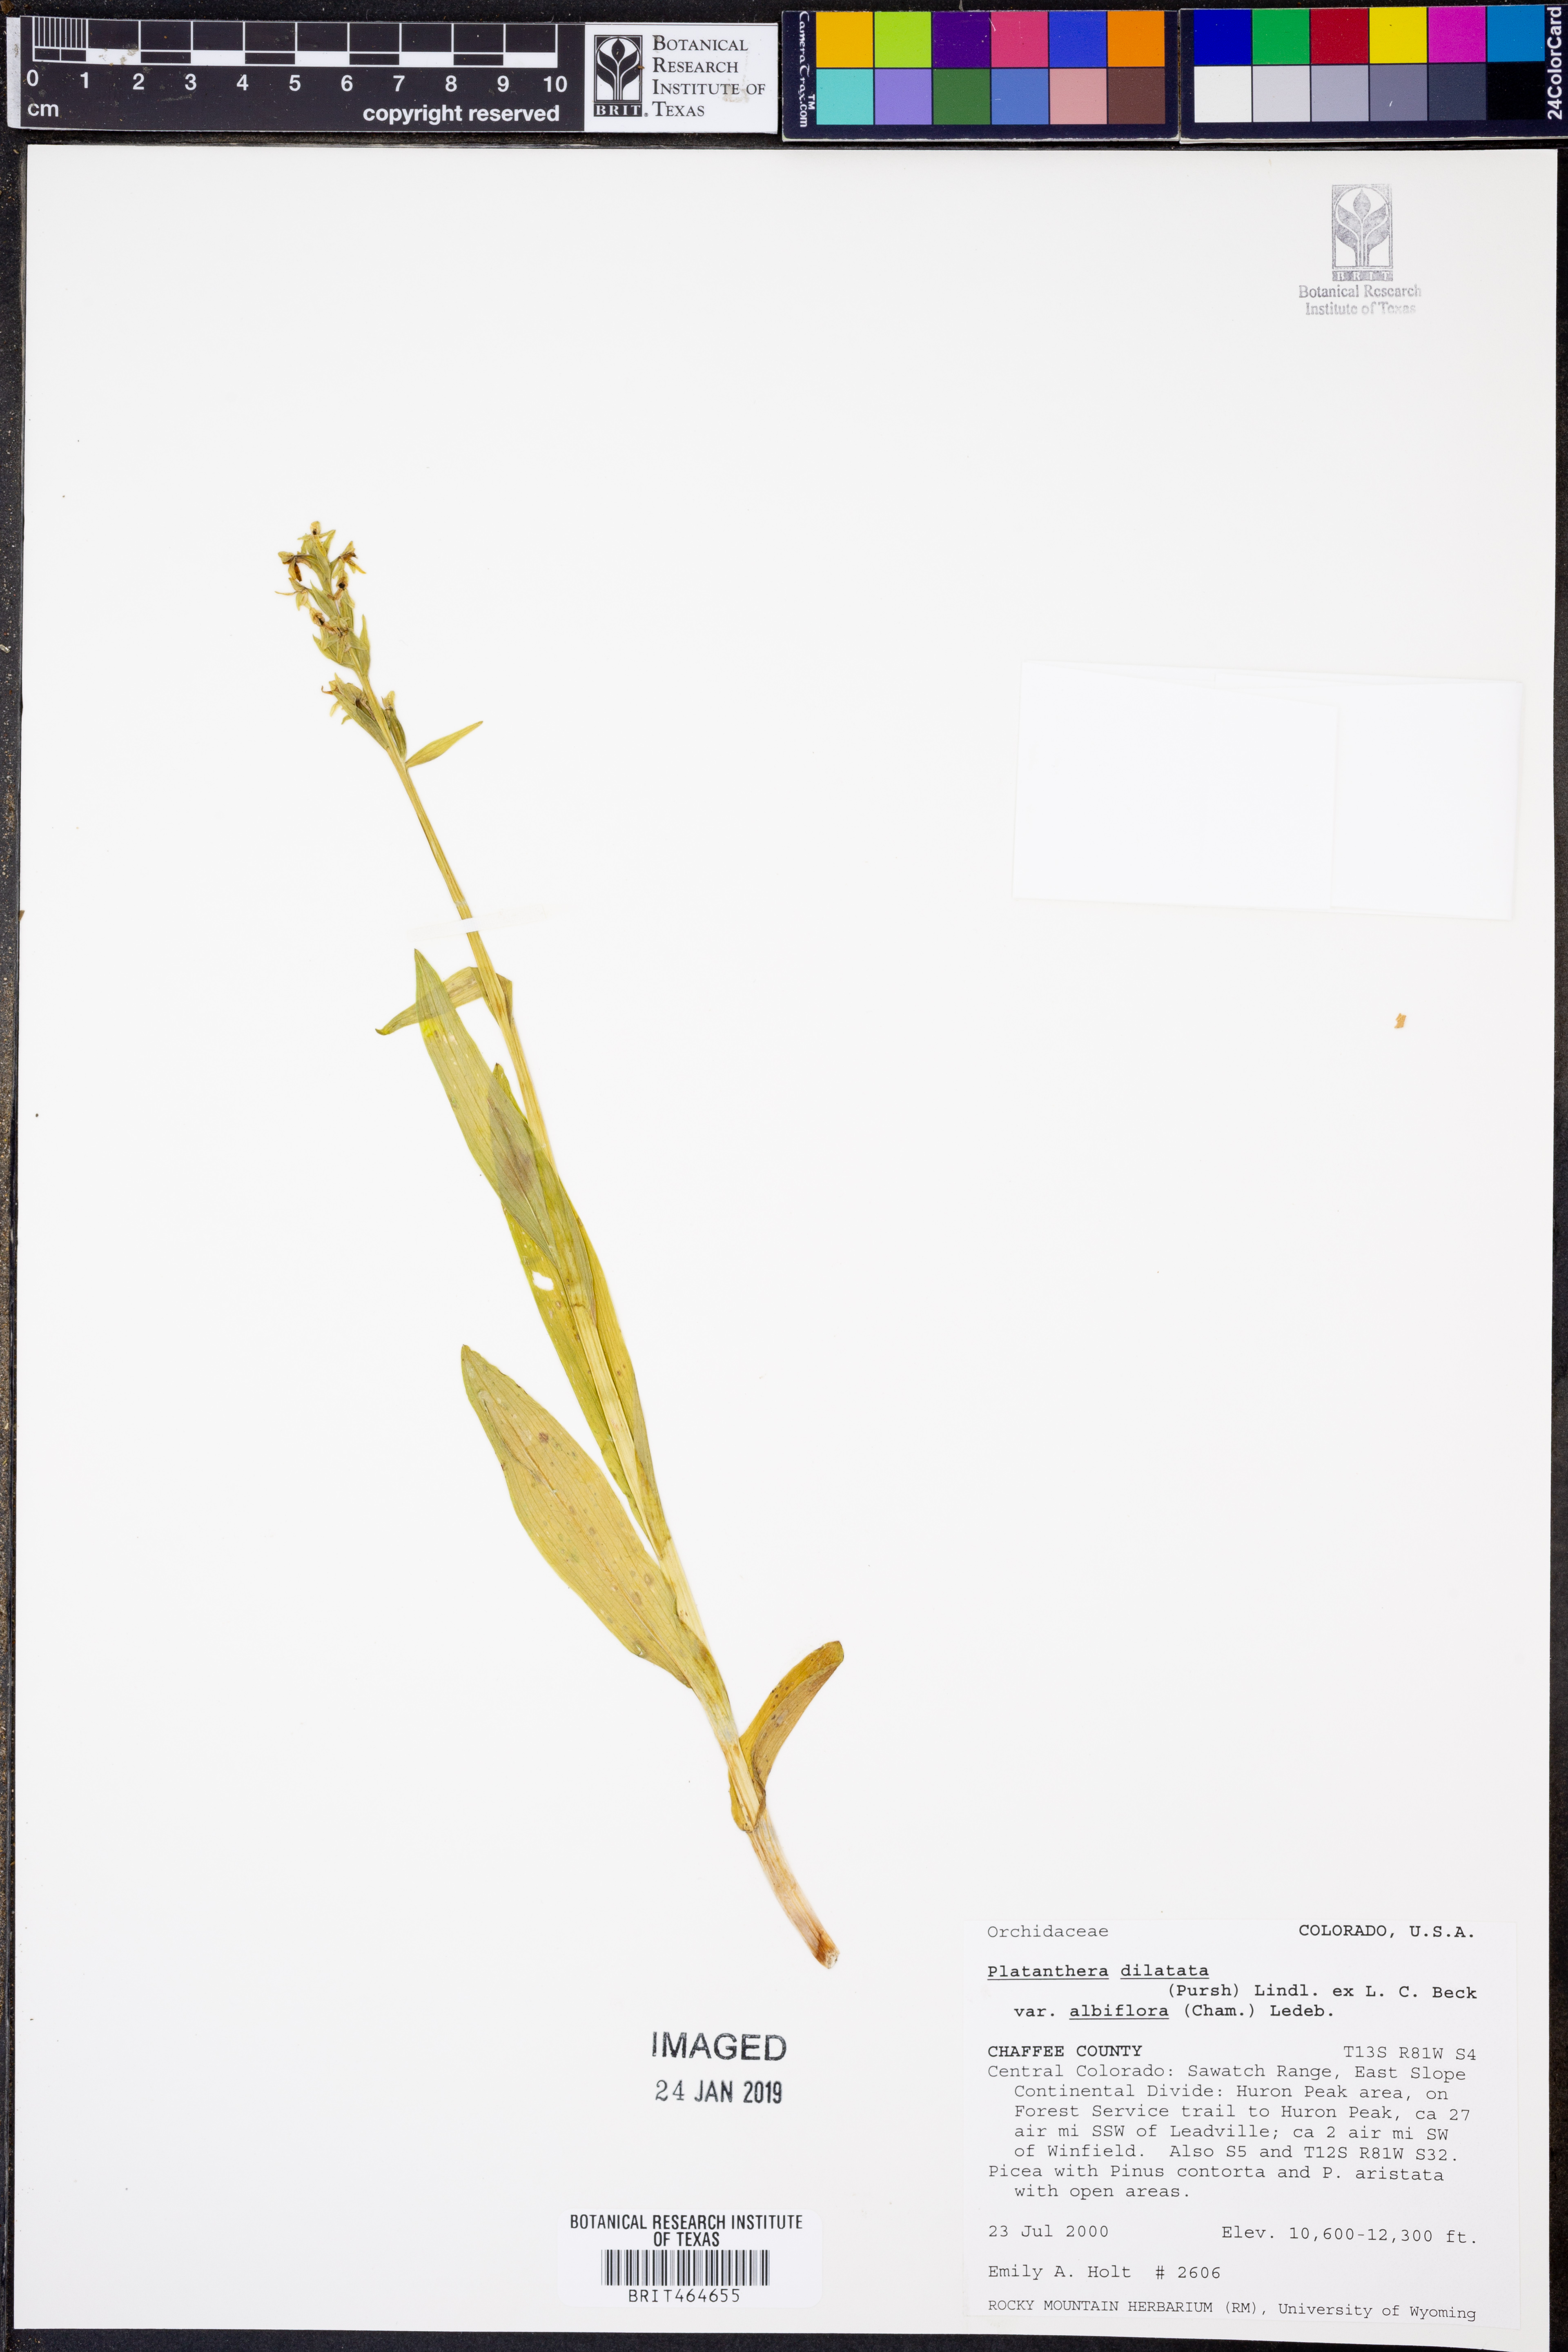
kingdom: Plantae
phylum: Tracheophyta
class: Liliopsida
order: Asparagales
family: Orchidaceae
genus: Platanthera
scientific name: Platanthera dilatata
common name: Bog candles
